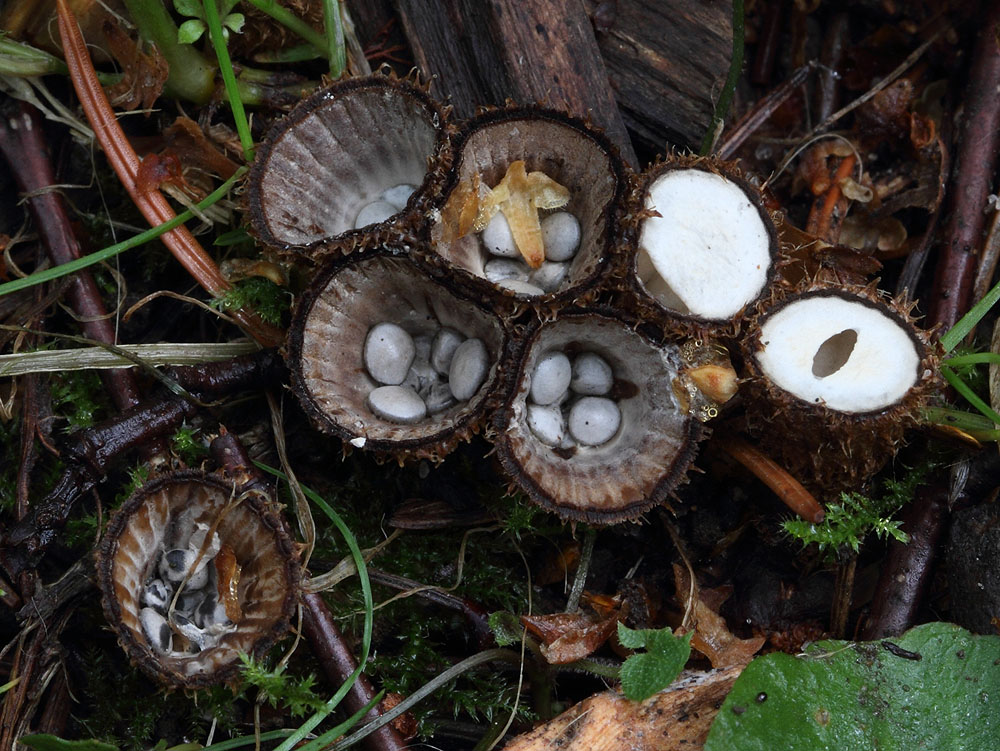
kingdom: Fungi
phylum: Basidiomycota
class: Agaricomycetes
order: Agaricales
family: Agaricaceae
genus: Cyathus
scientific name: Cyathus striatus
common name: stribet redesvamp
